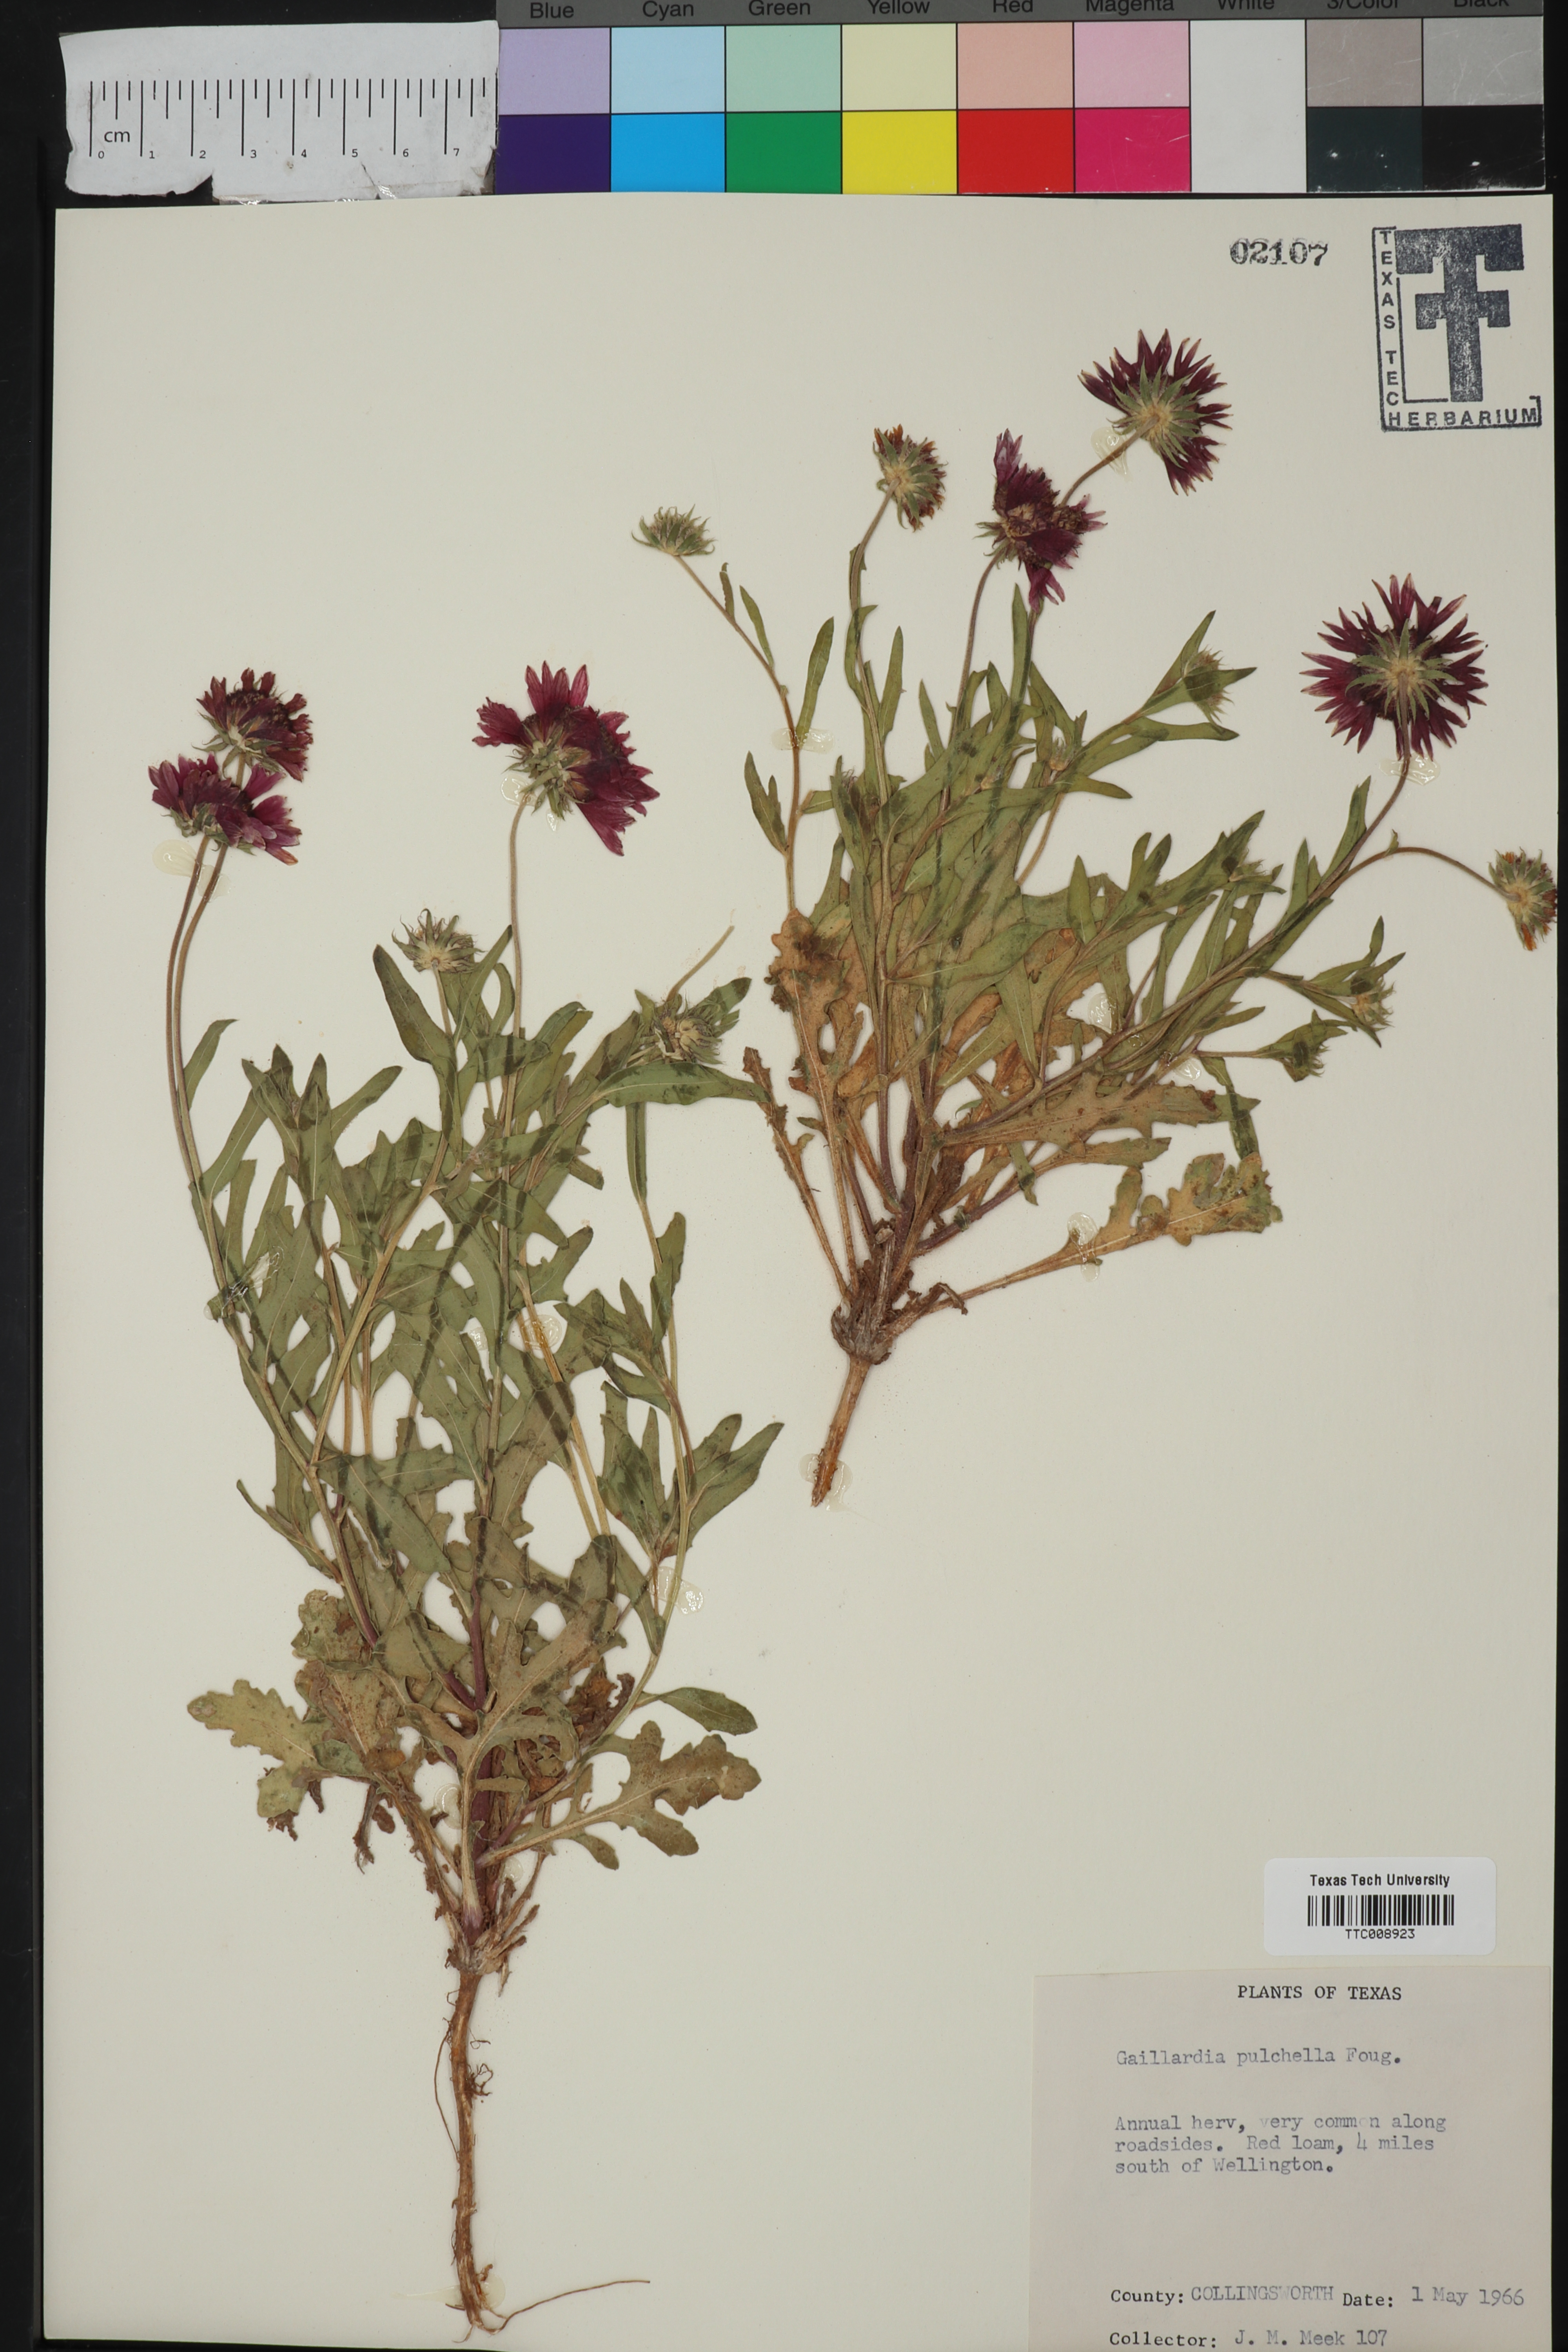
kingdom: Plantae
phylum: Tracheophyta
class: Magnoliopsida
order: Asterales
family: Asteraceae
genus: Gaillardia
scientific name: Gaillardia pulchella
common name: Firewheel
